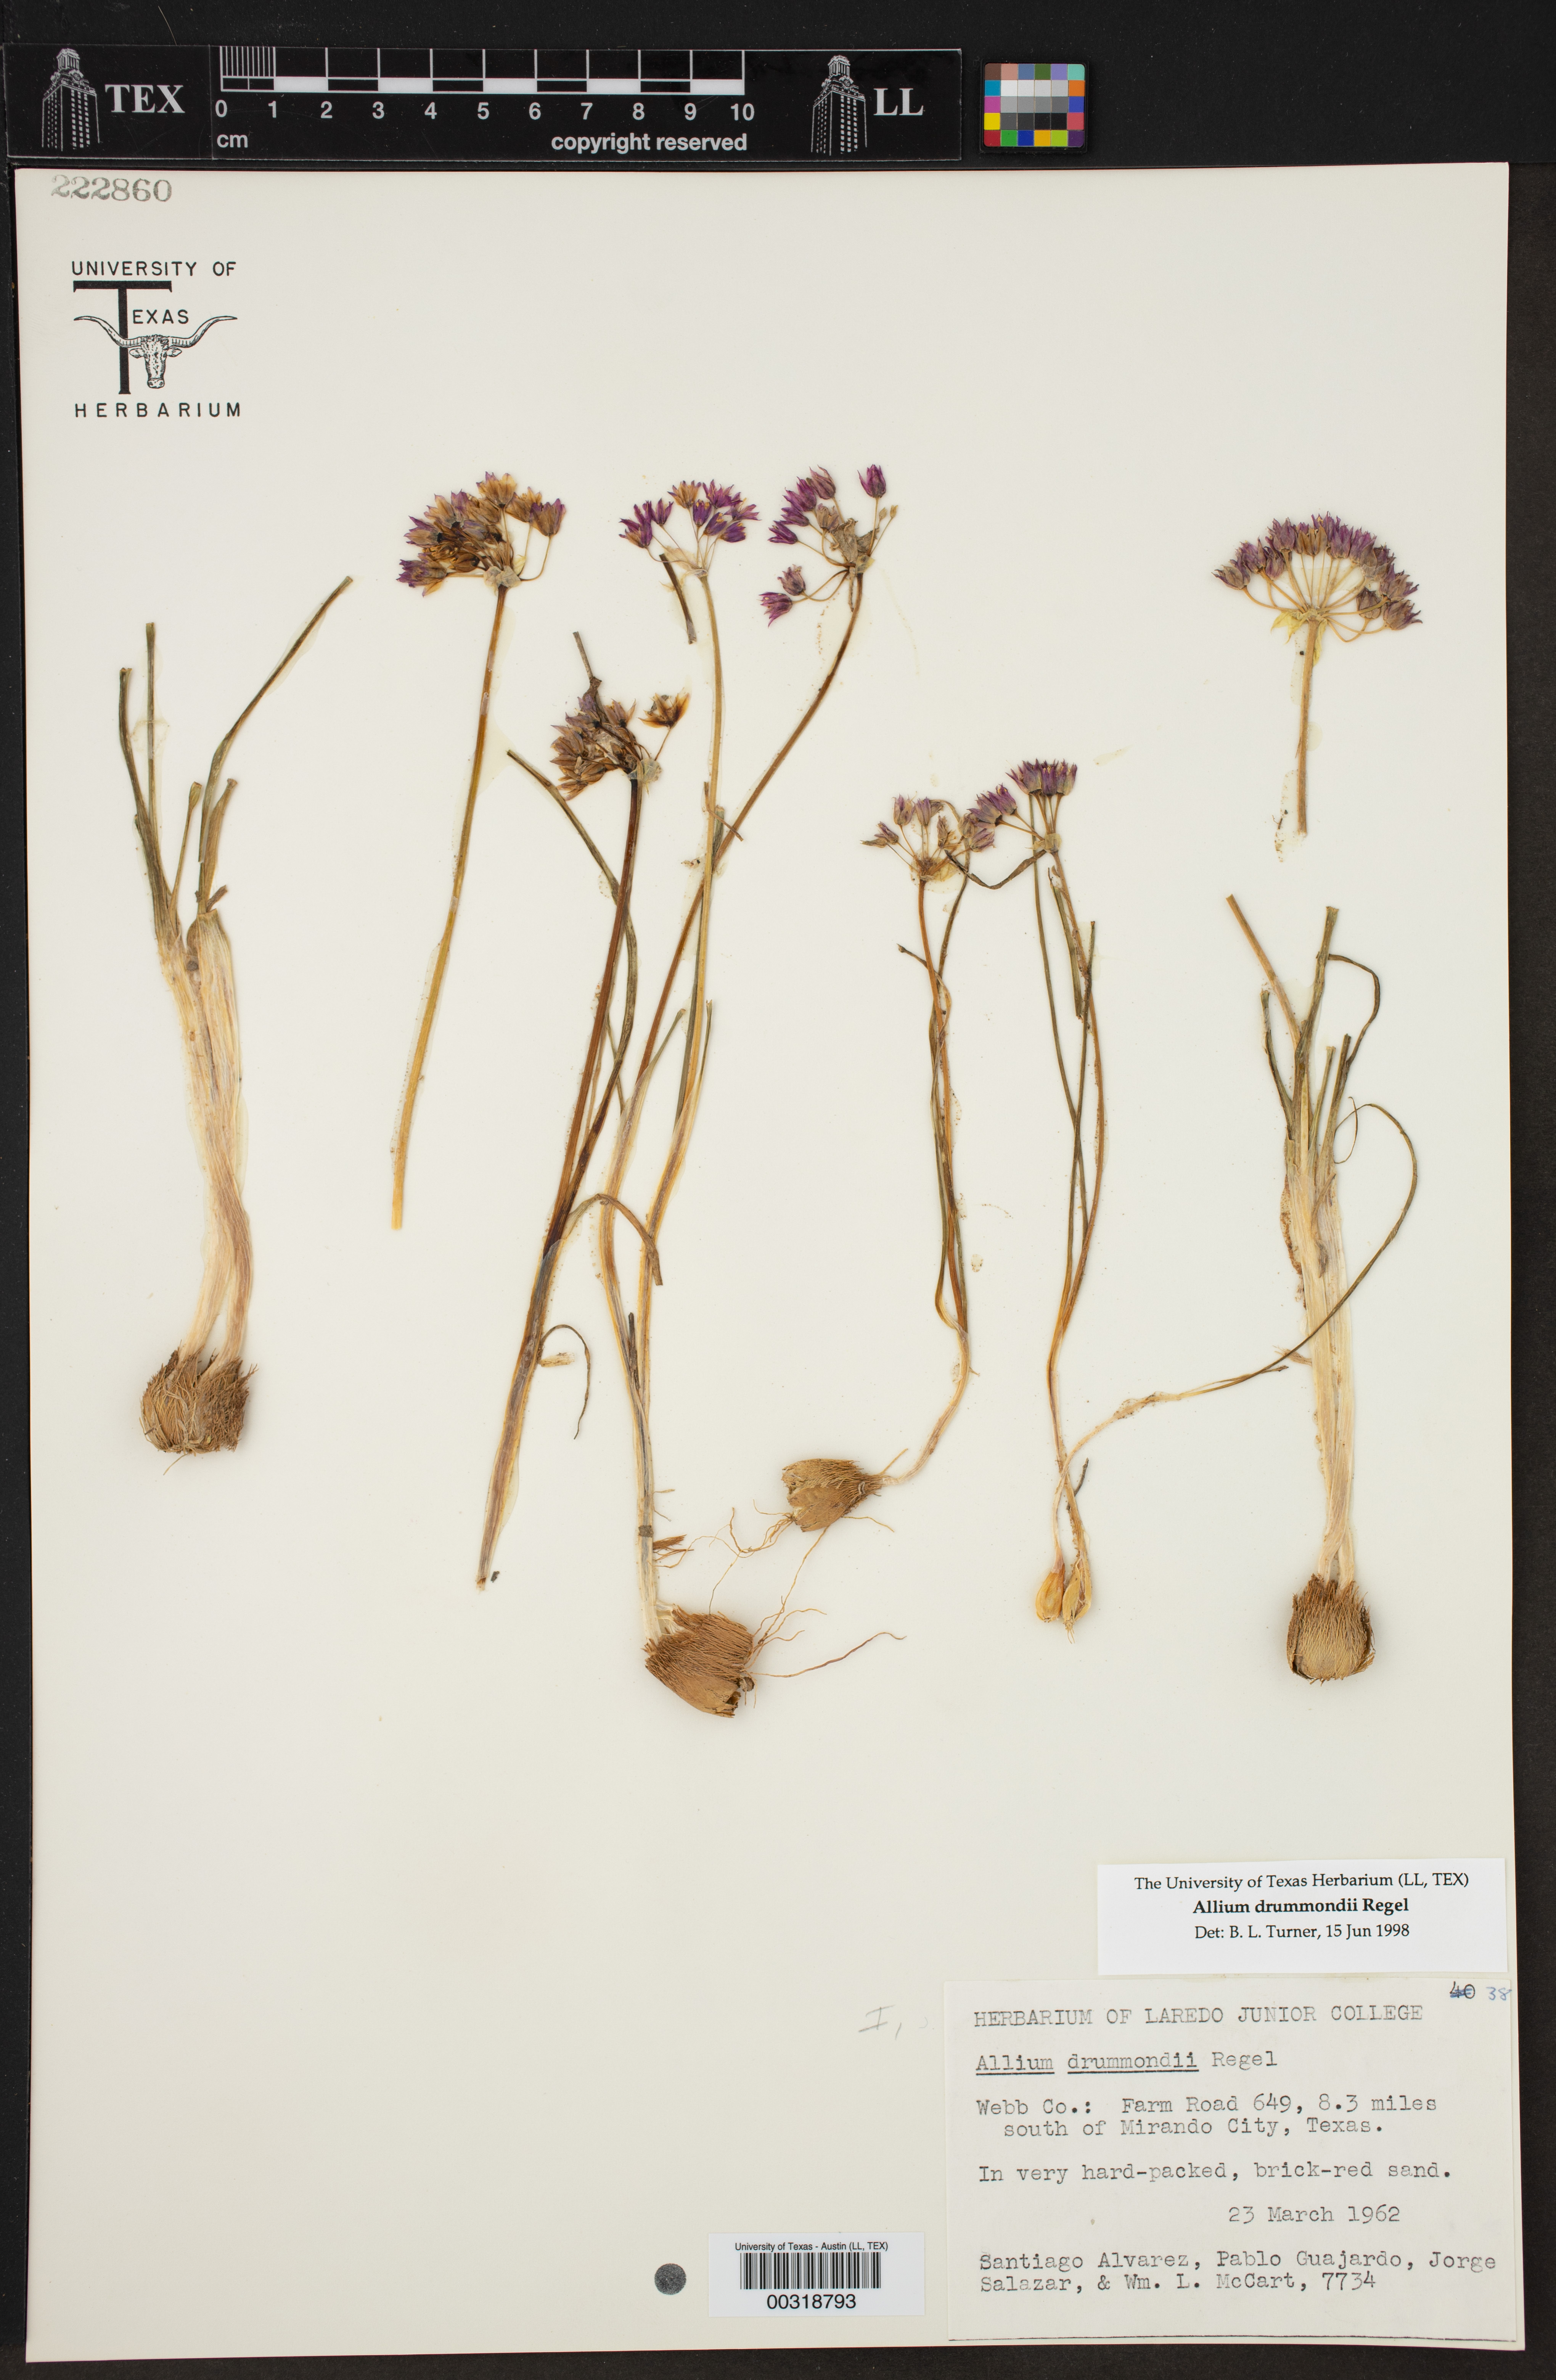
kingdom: Plantae
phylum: Tracheophyta
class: Liliopsida
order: Asparagales
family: Amaryllidaceae
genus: Allium
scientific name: Allium drummondii
